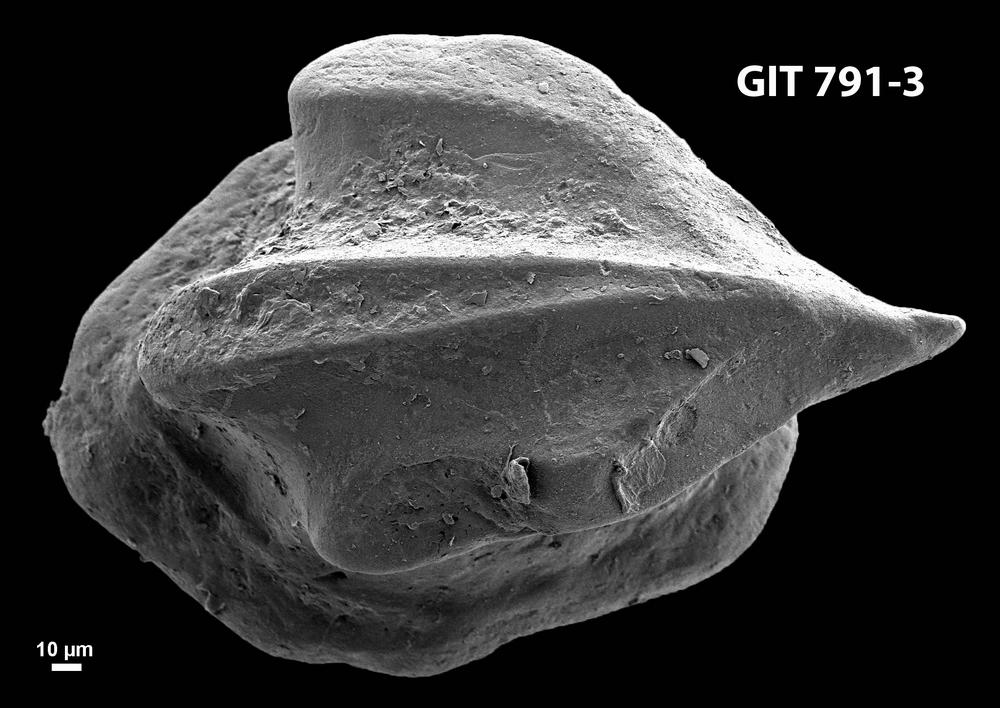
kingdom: Animalia
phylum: Chordata
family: Thelodontidae
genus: Thelodus
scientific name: Thelodus parvidens
